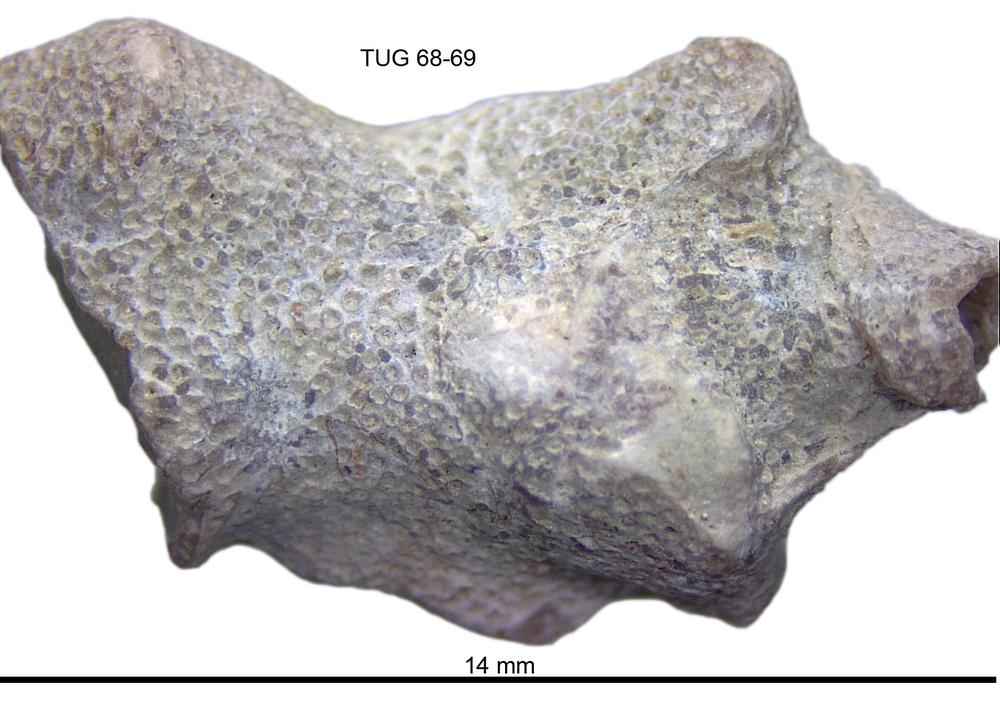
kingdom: Animalia
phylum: Bryozoa
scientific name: Bryozoa
